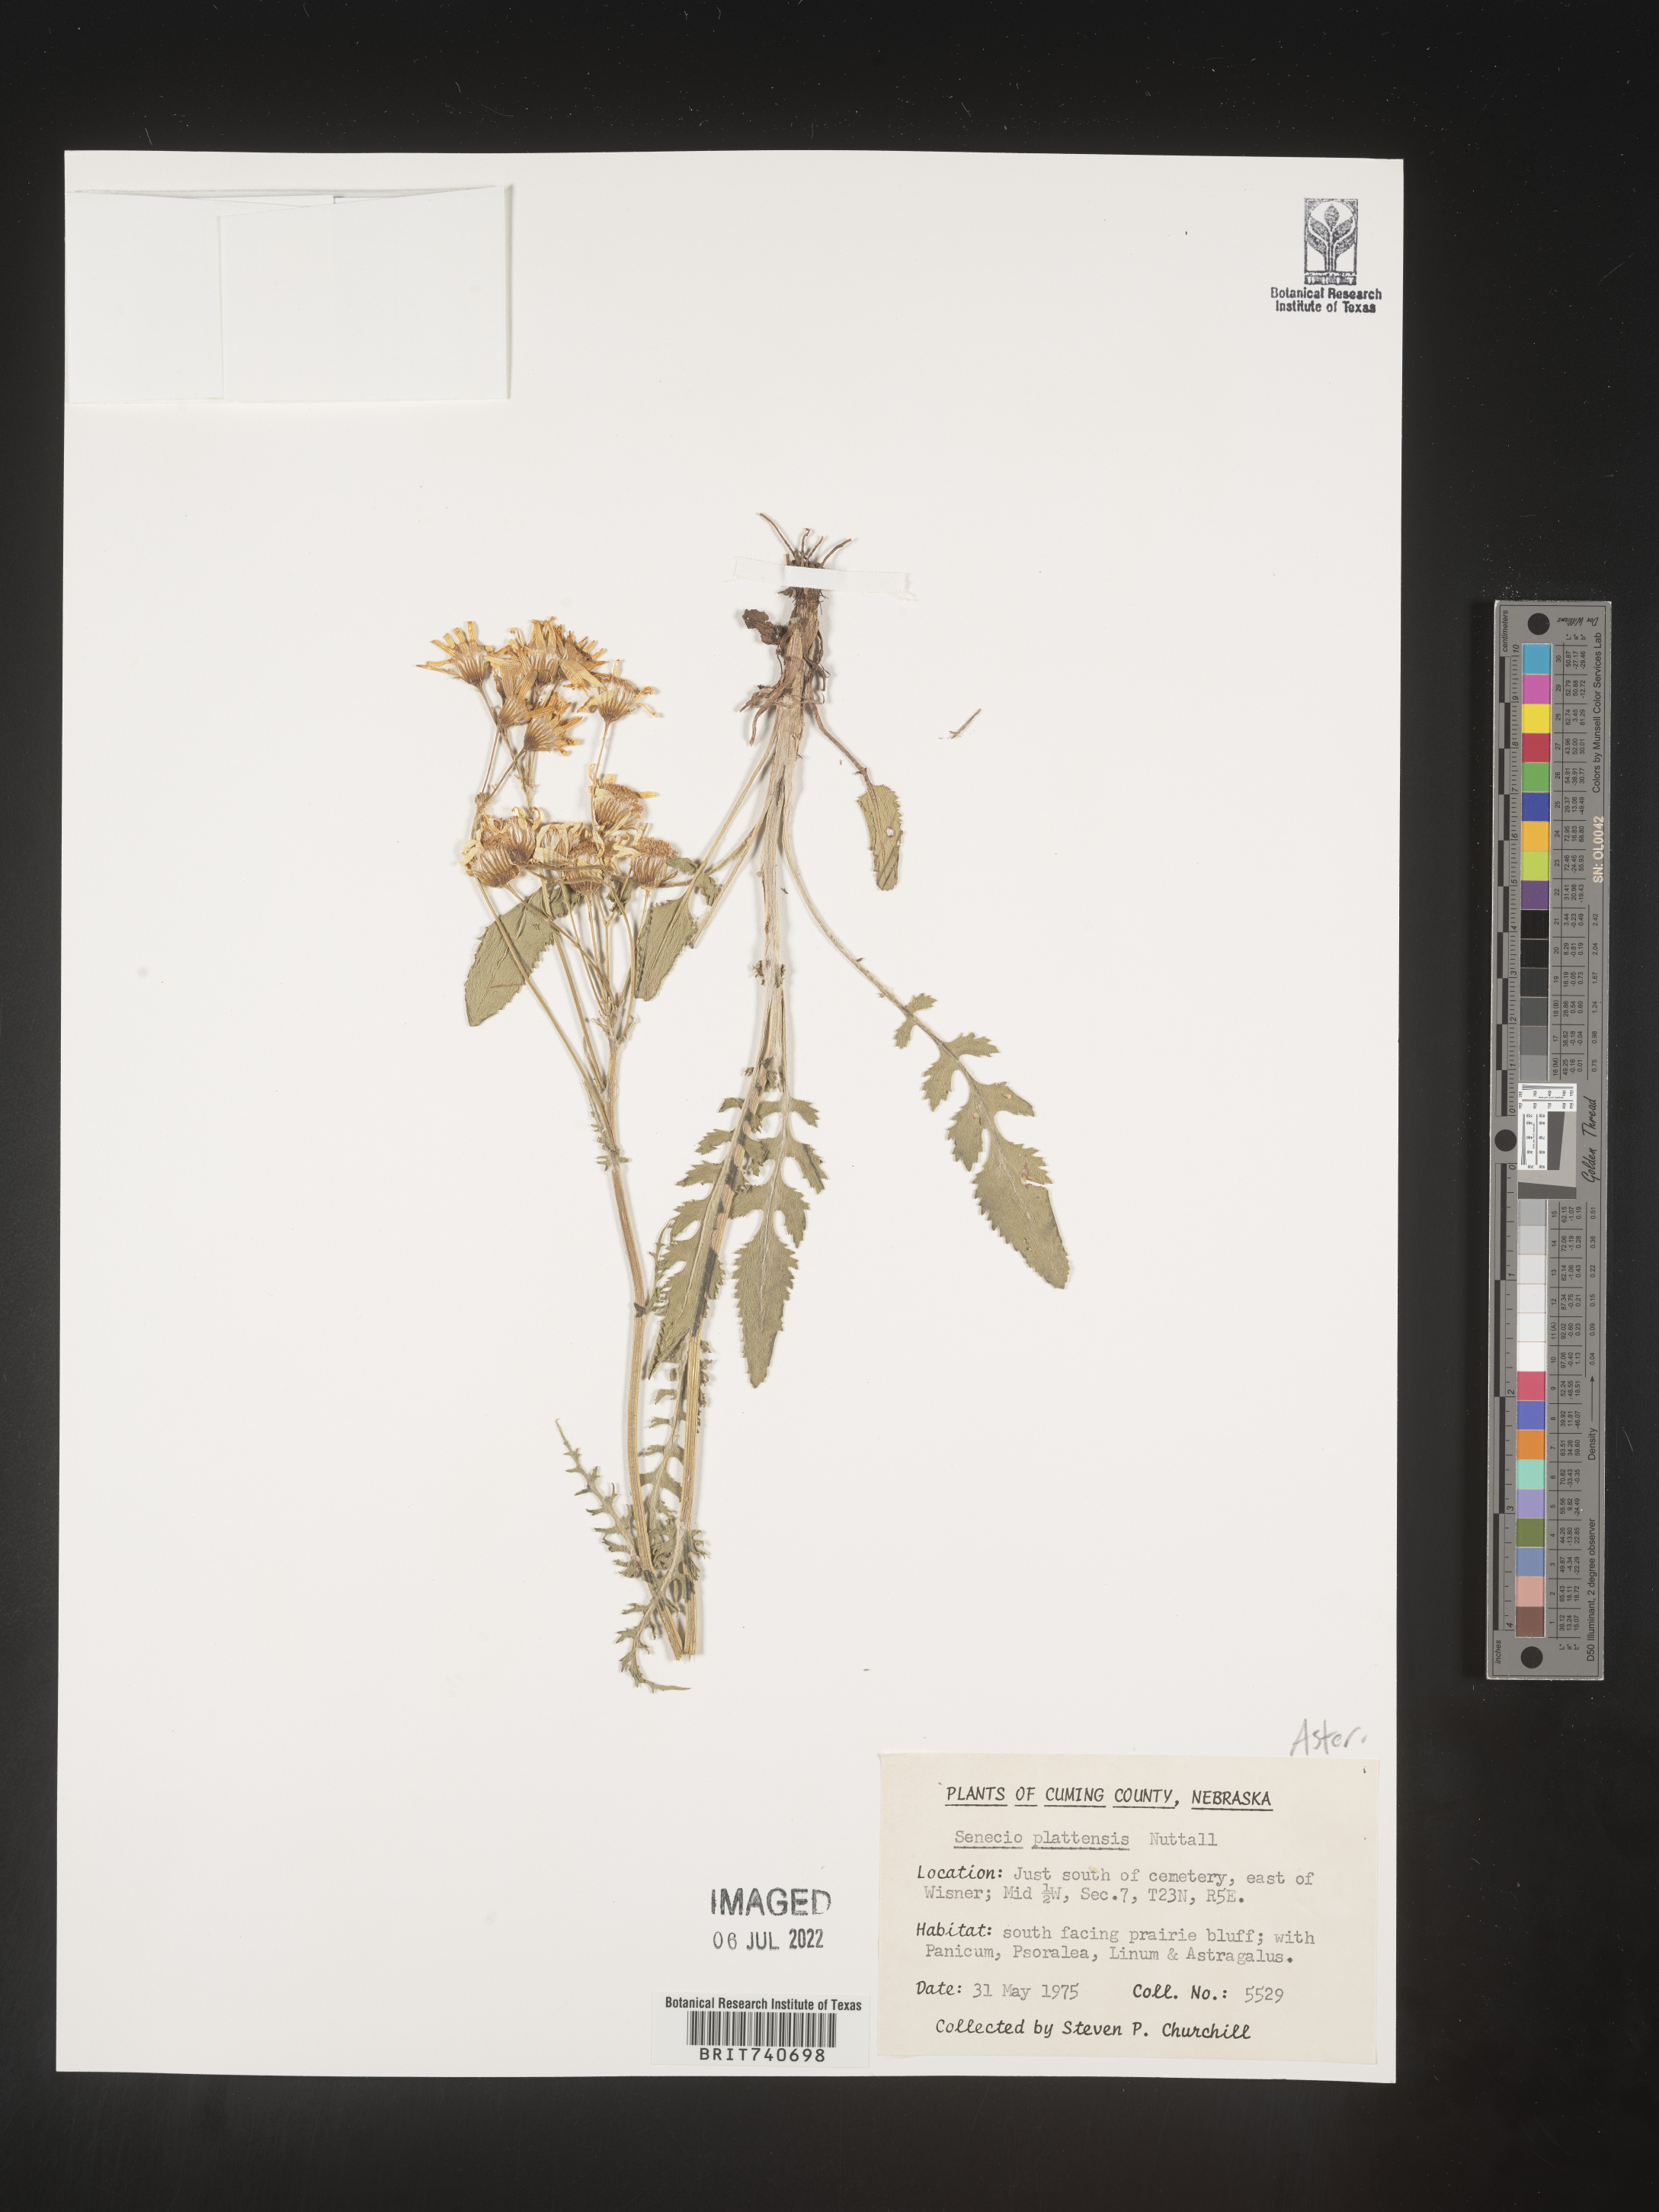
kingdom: Plantae
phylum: Tracheophyta
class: Magnoliopsida
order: Asterales
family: Asteraceae
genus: Packera
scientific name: Packera plattensis
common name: Prairie groundsel
